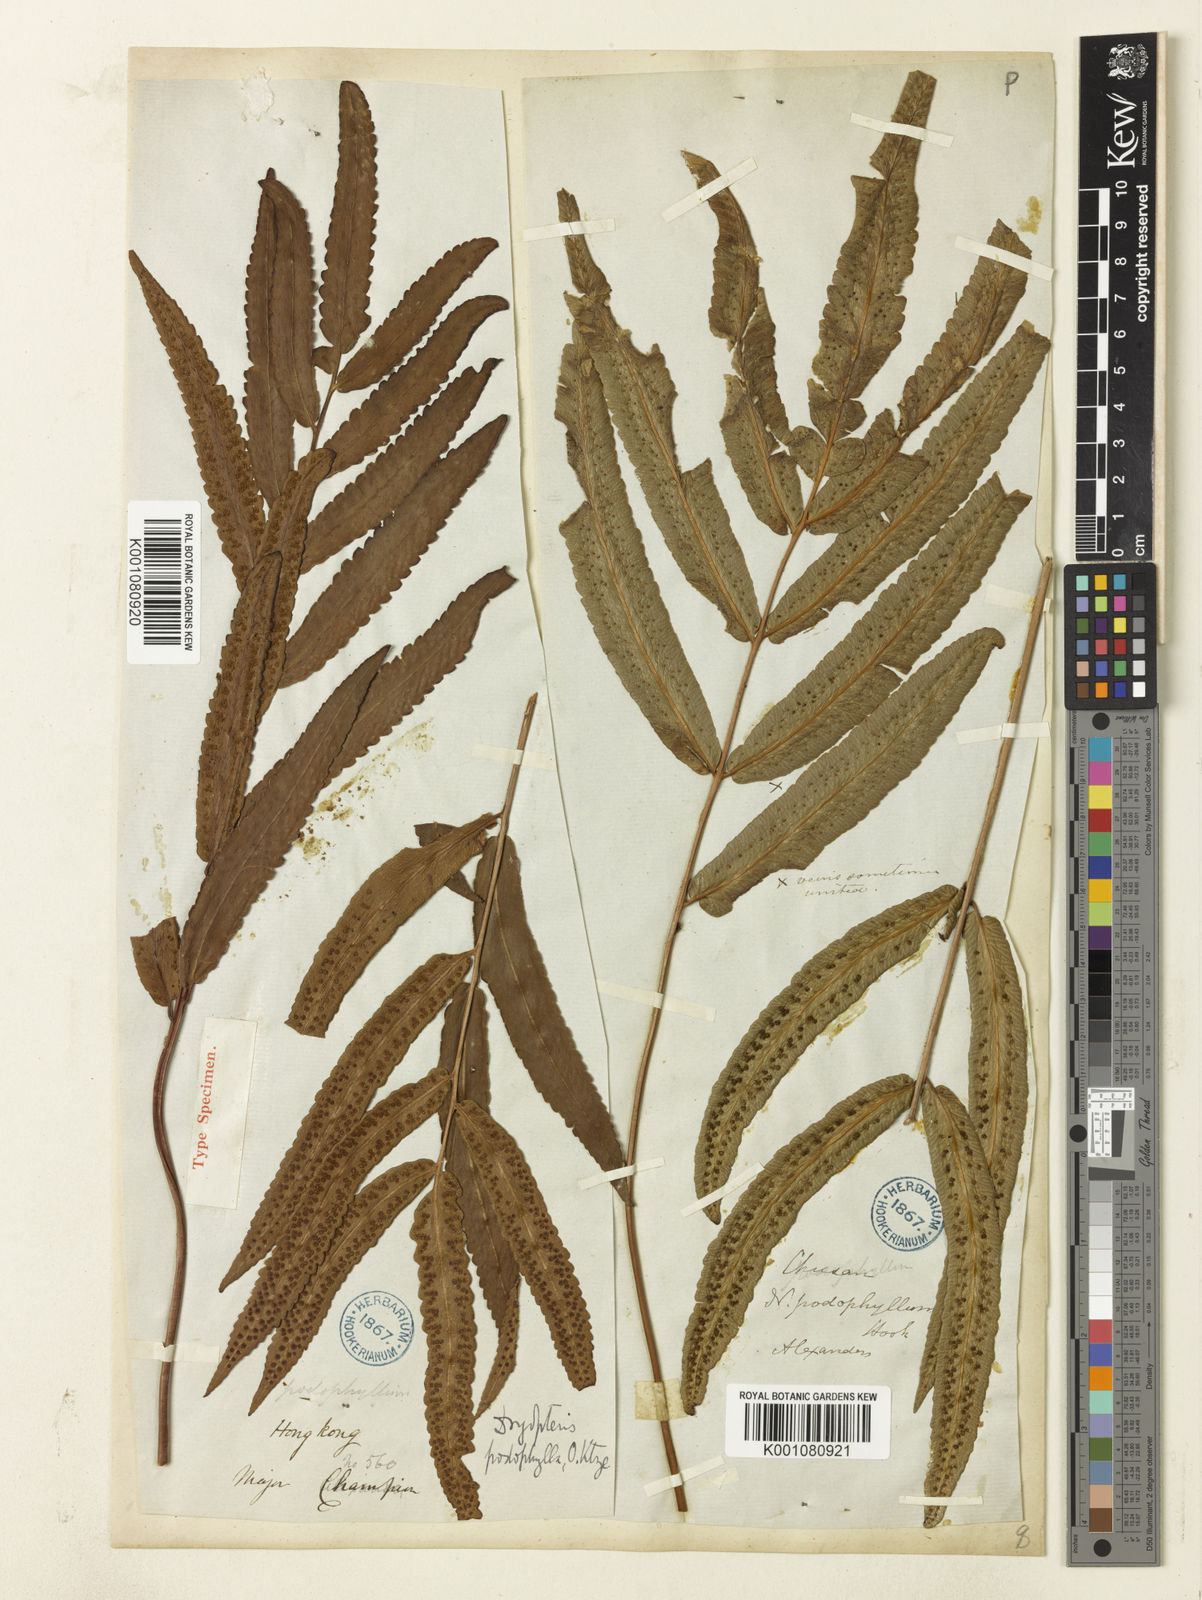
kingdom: Plantae
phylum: Tracheophyta
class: Polypodiopsida
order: Polypodiales
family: Dryopteridaceae
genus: Dryopteris
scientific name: Dryopteris podophylla
